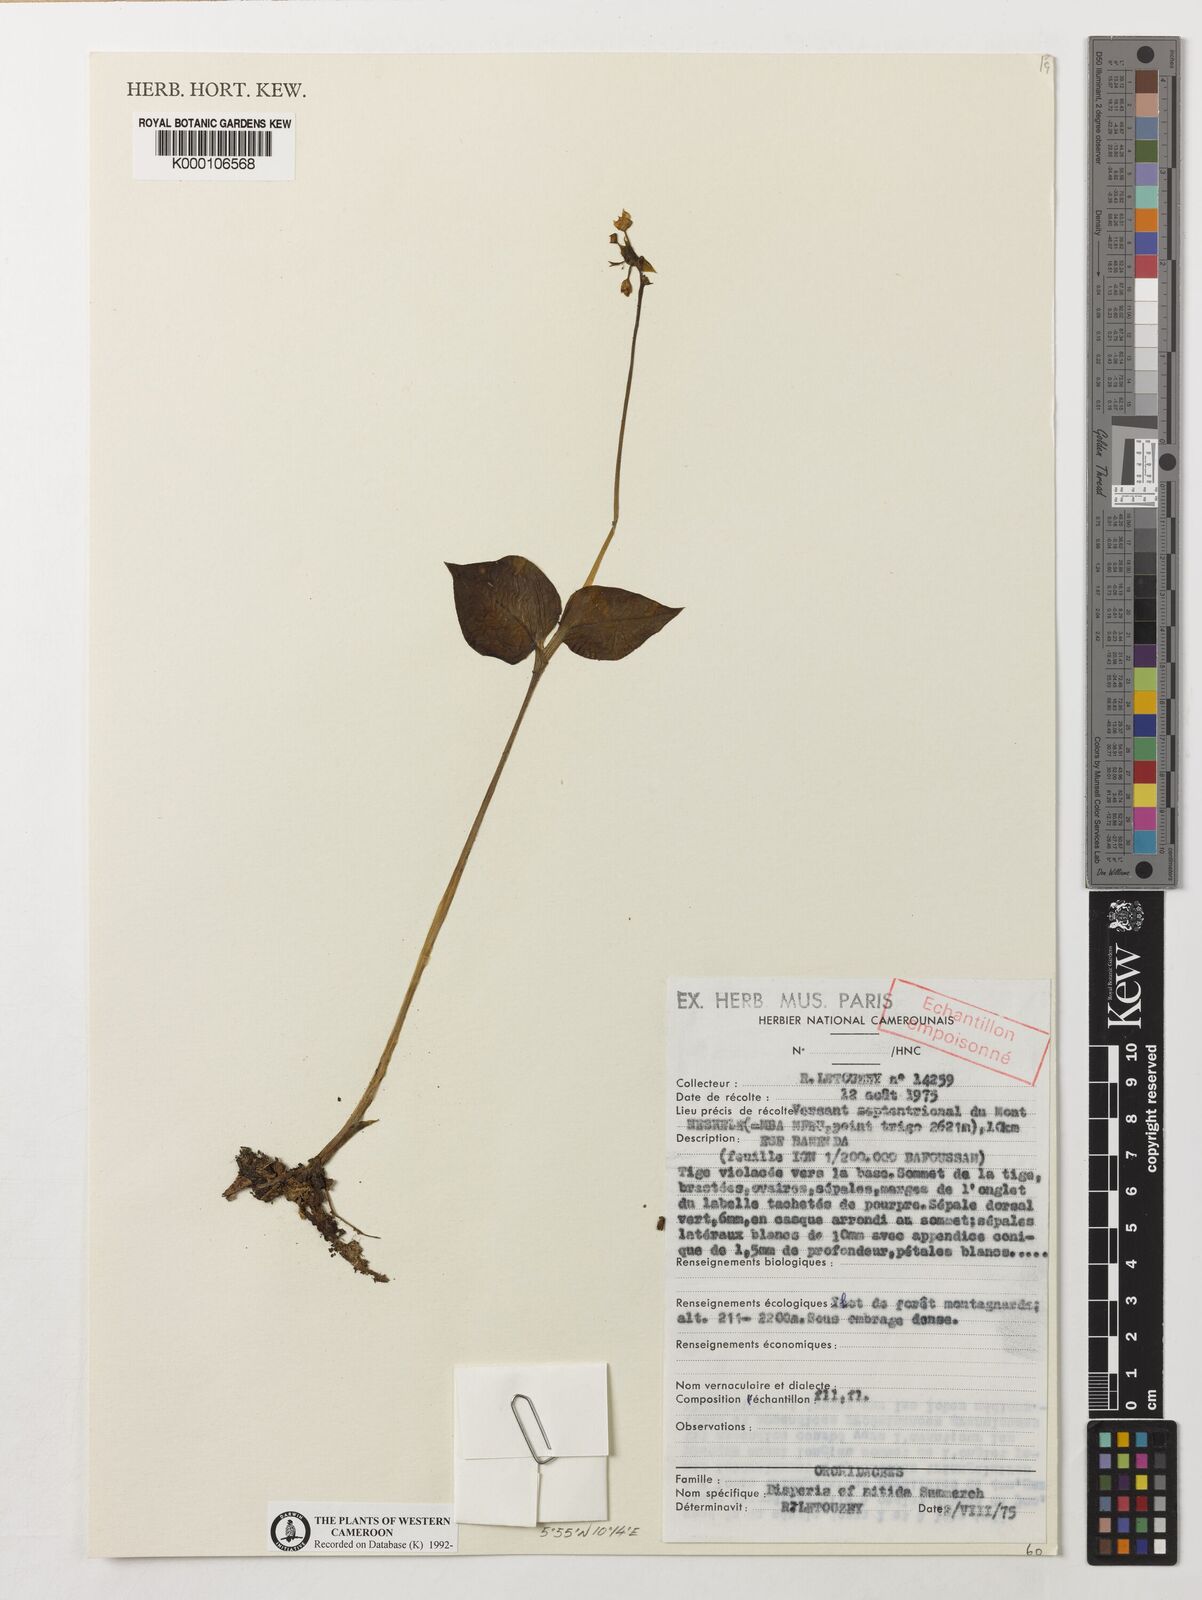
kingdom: Plantae
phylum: Tracheophyta
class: Liliopsida
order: Asparagales
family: Orchidaceae
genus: Disperis
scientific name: Disperis nitida
